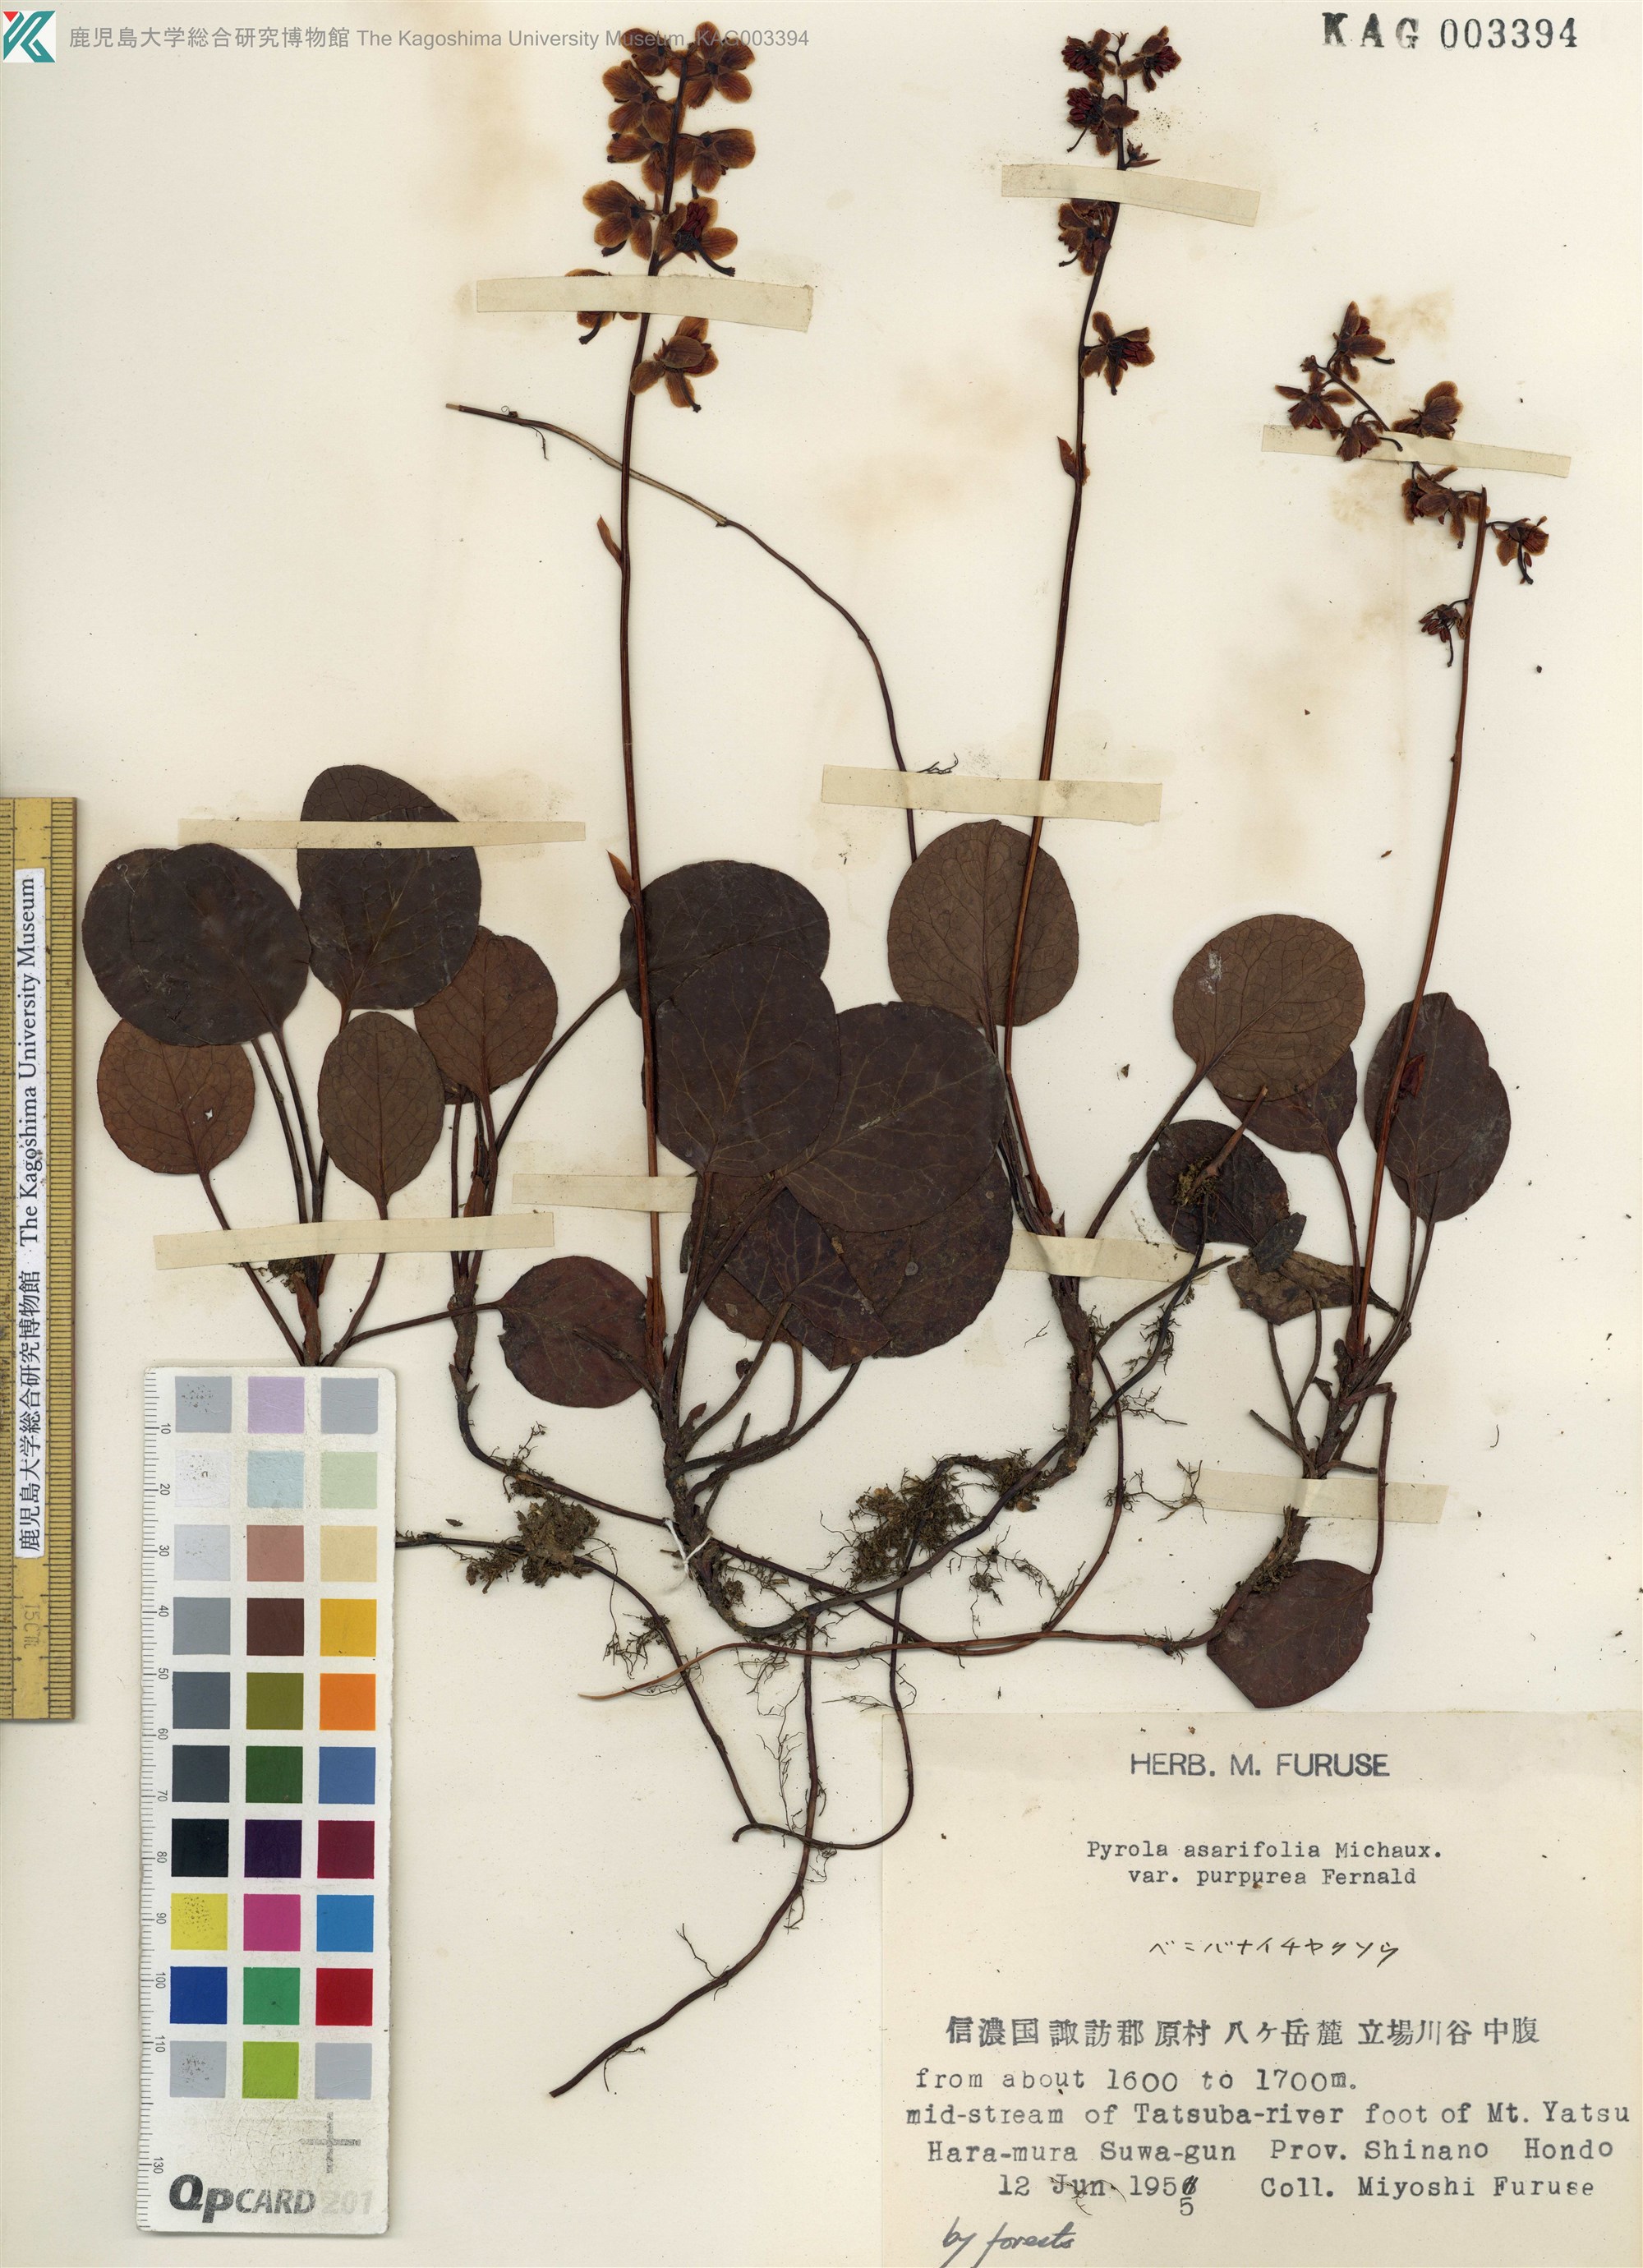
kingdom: Plantae
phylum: Tracheophyta
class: Magnoliopsida
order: Ericales
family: Ericaceae
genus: Pyrola
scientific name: Pyrola asarifolia
